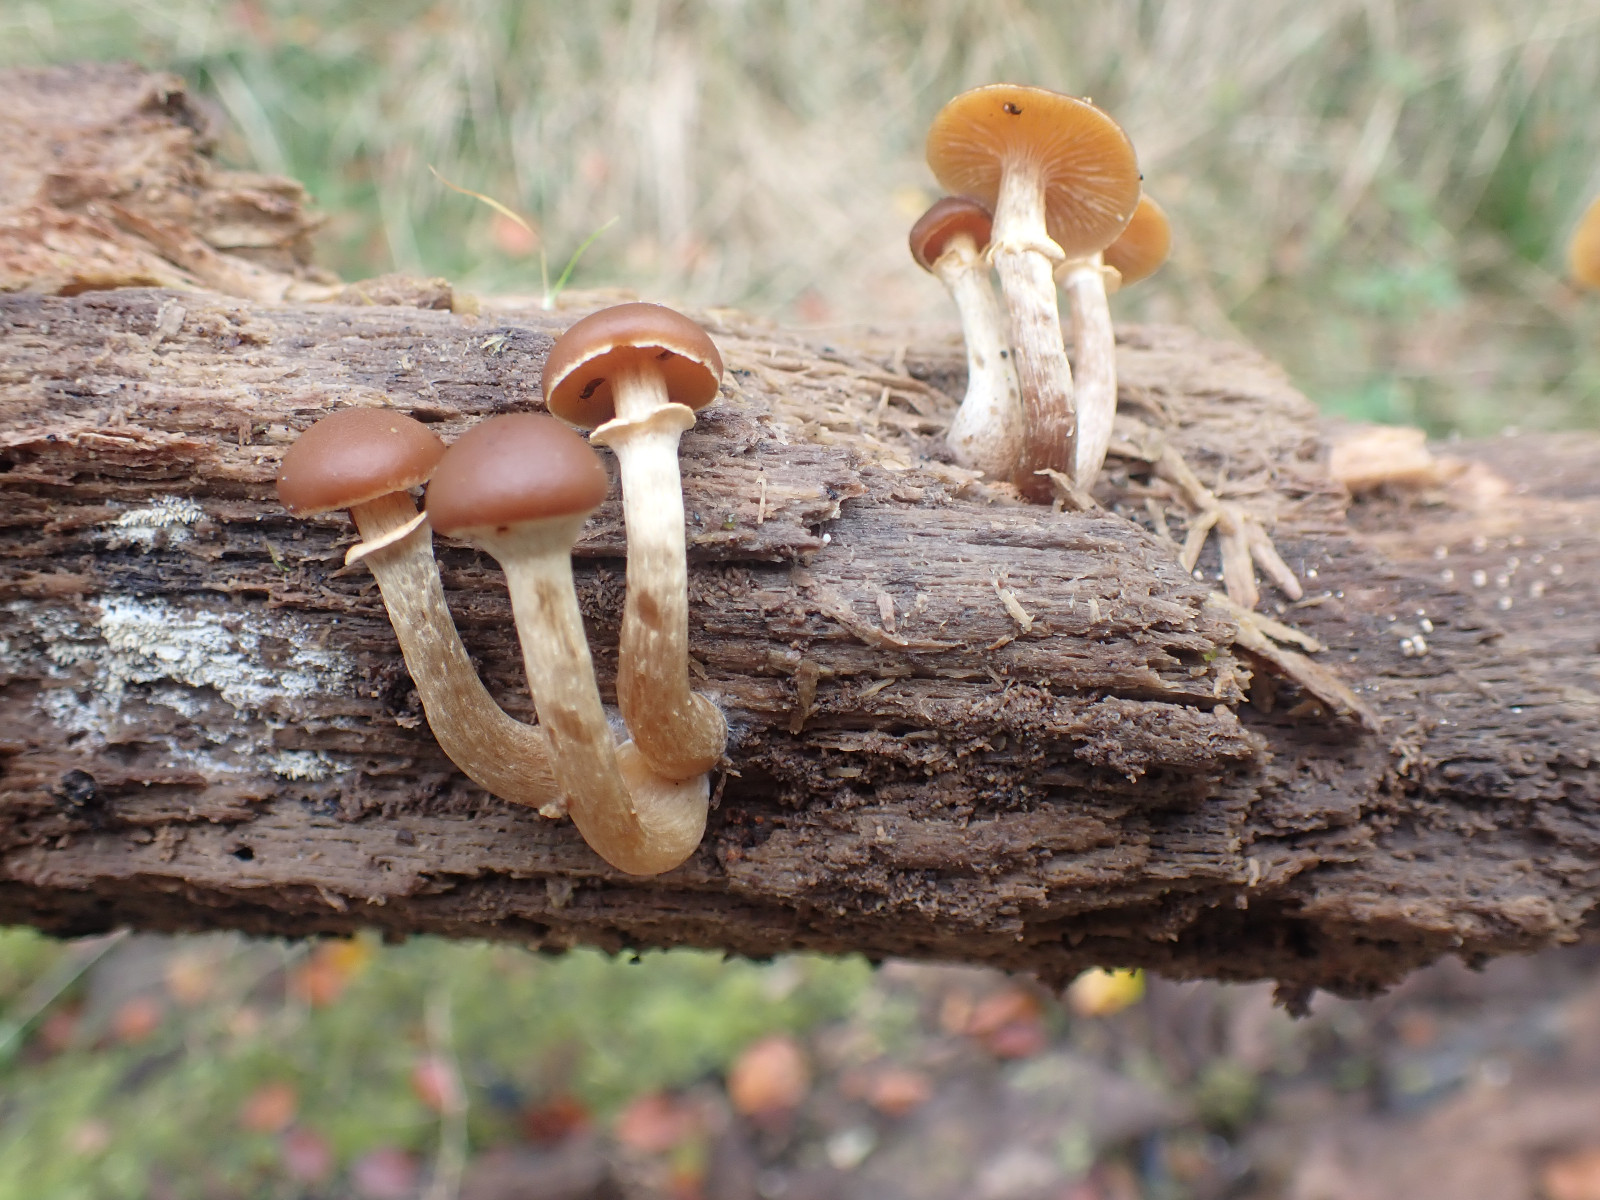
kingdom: Fungi
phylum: Basidiomycota
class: Agaricomycetes
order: Agaricales
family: Hymenogastraceae
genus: Galerina
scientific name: Galerina marginata
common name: randbæltet hjelmhat
